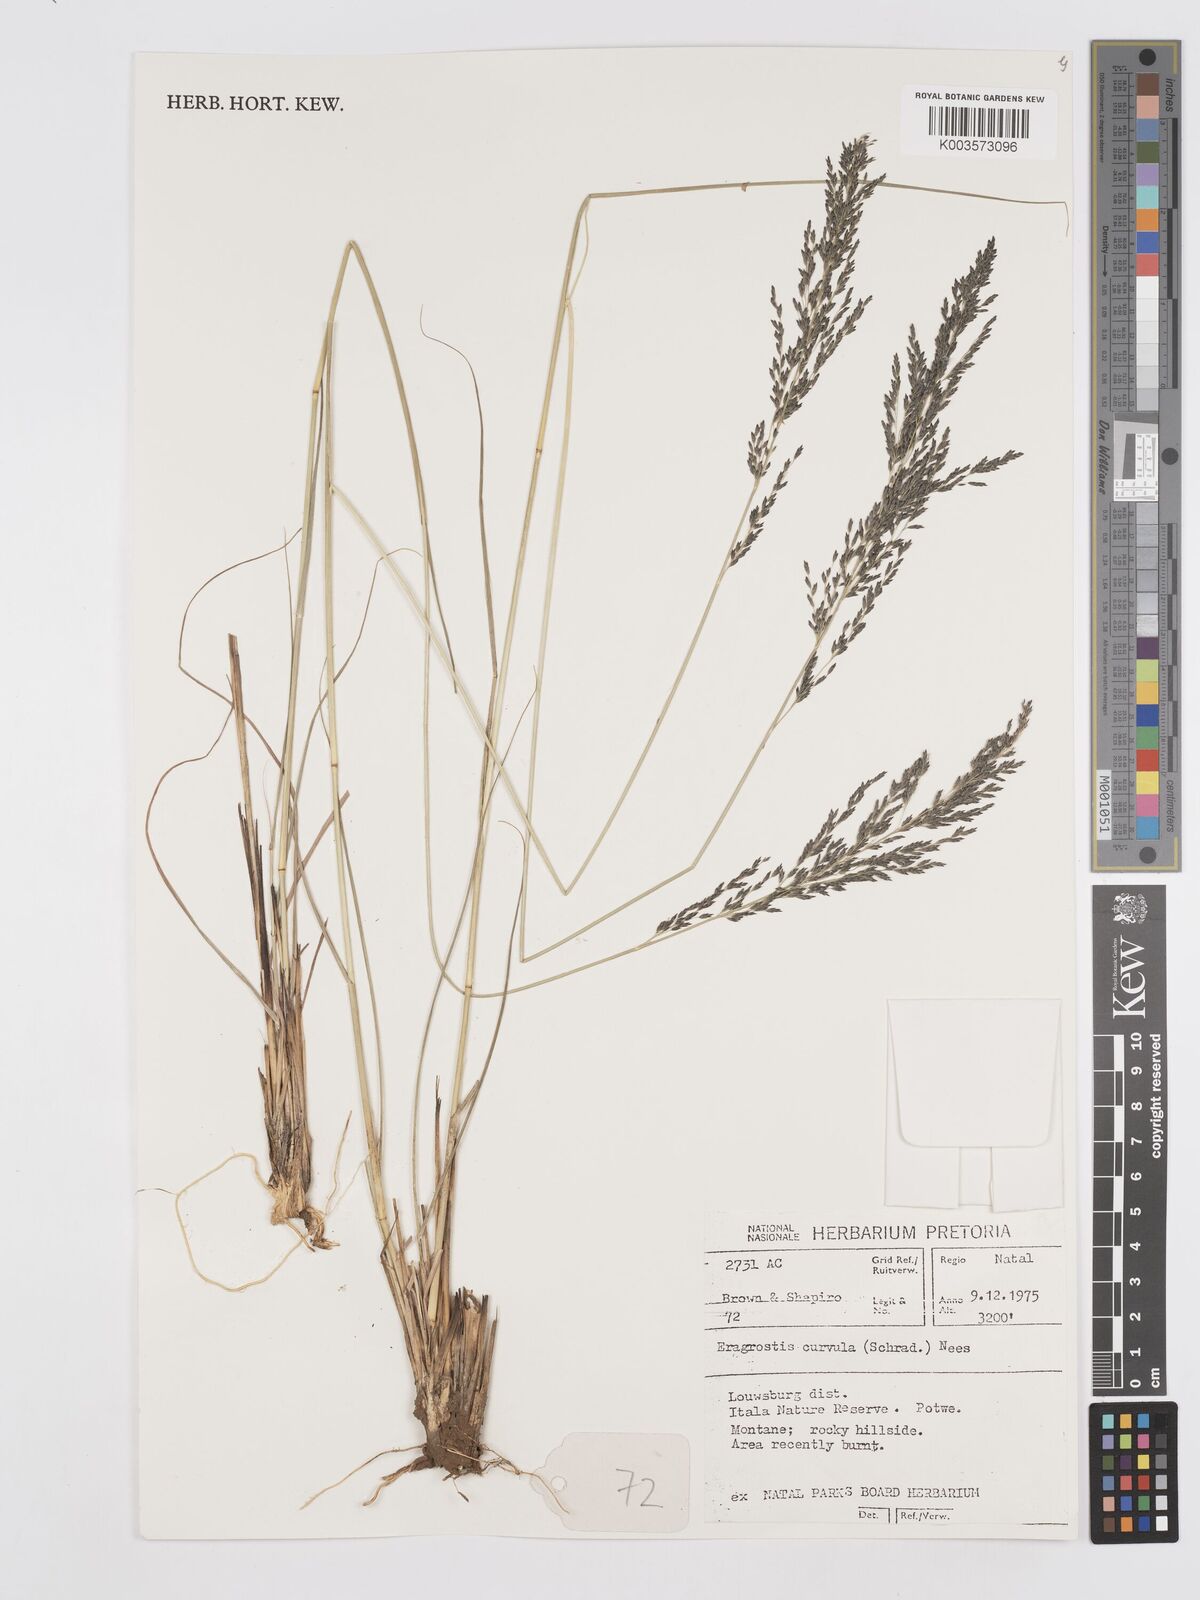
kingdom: Plantae
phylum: Tracheophyta
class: Liliopsida
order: Poales
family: Poaceae
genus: Eragrostis
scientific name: Eragrostis curvula
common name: African love-grass
